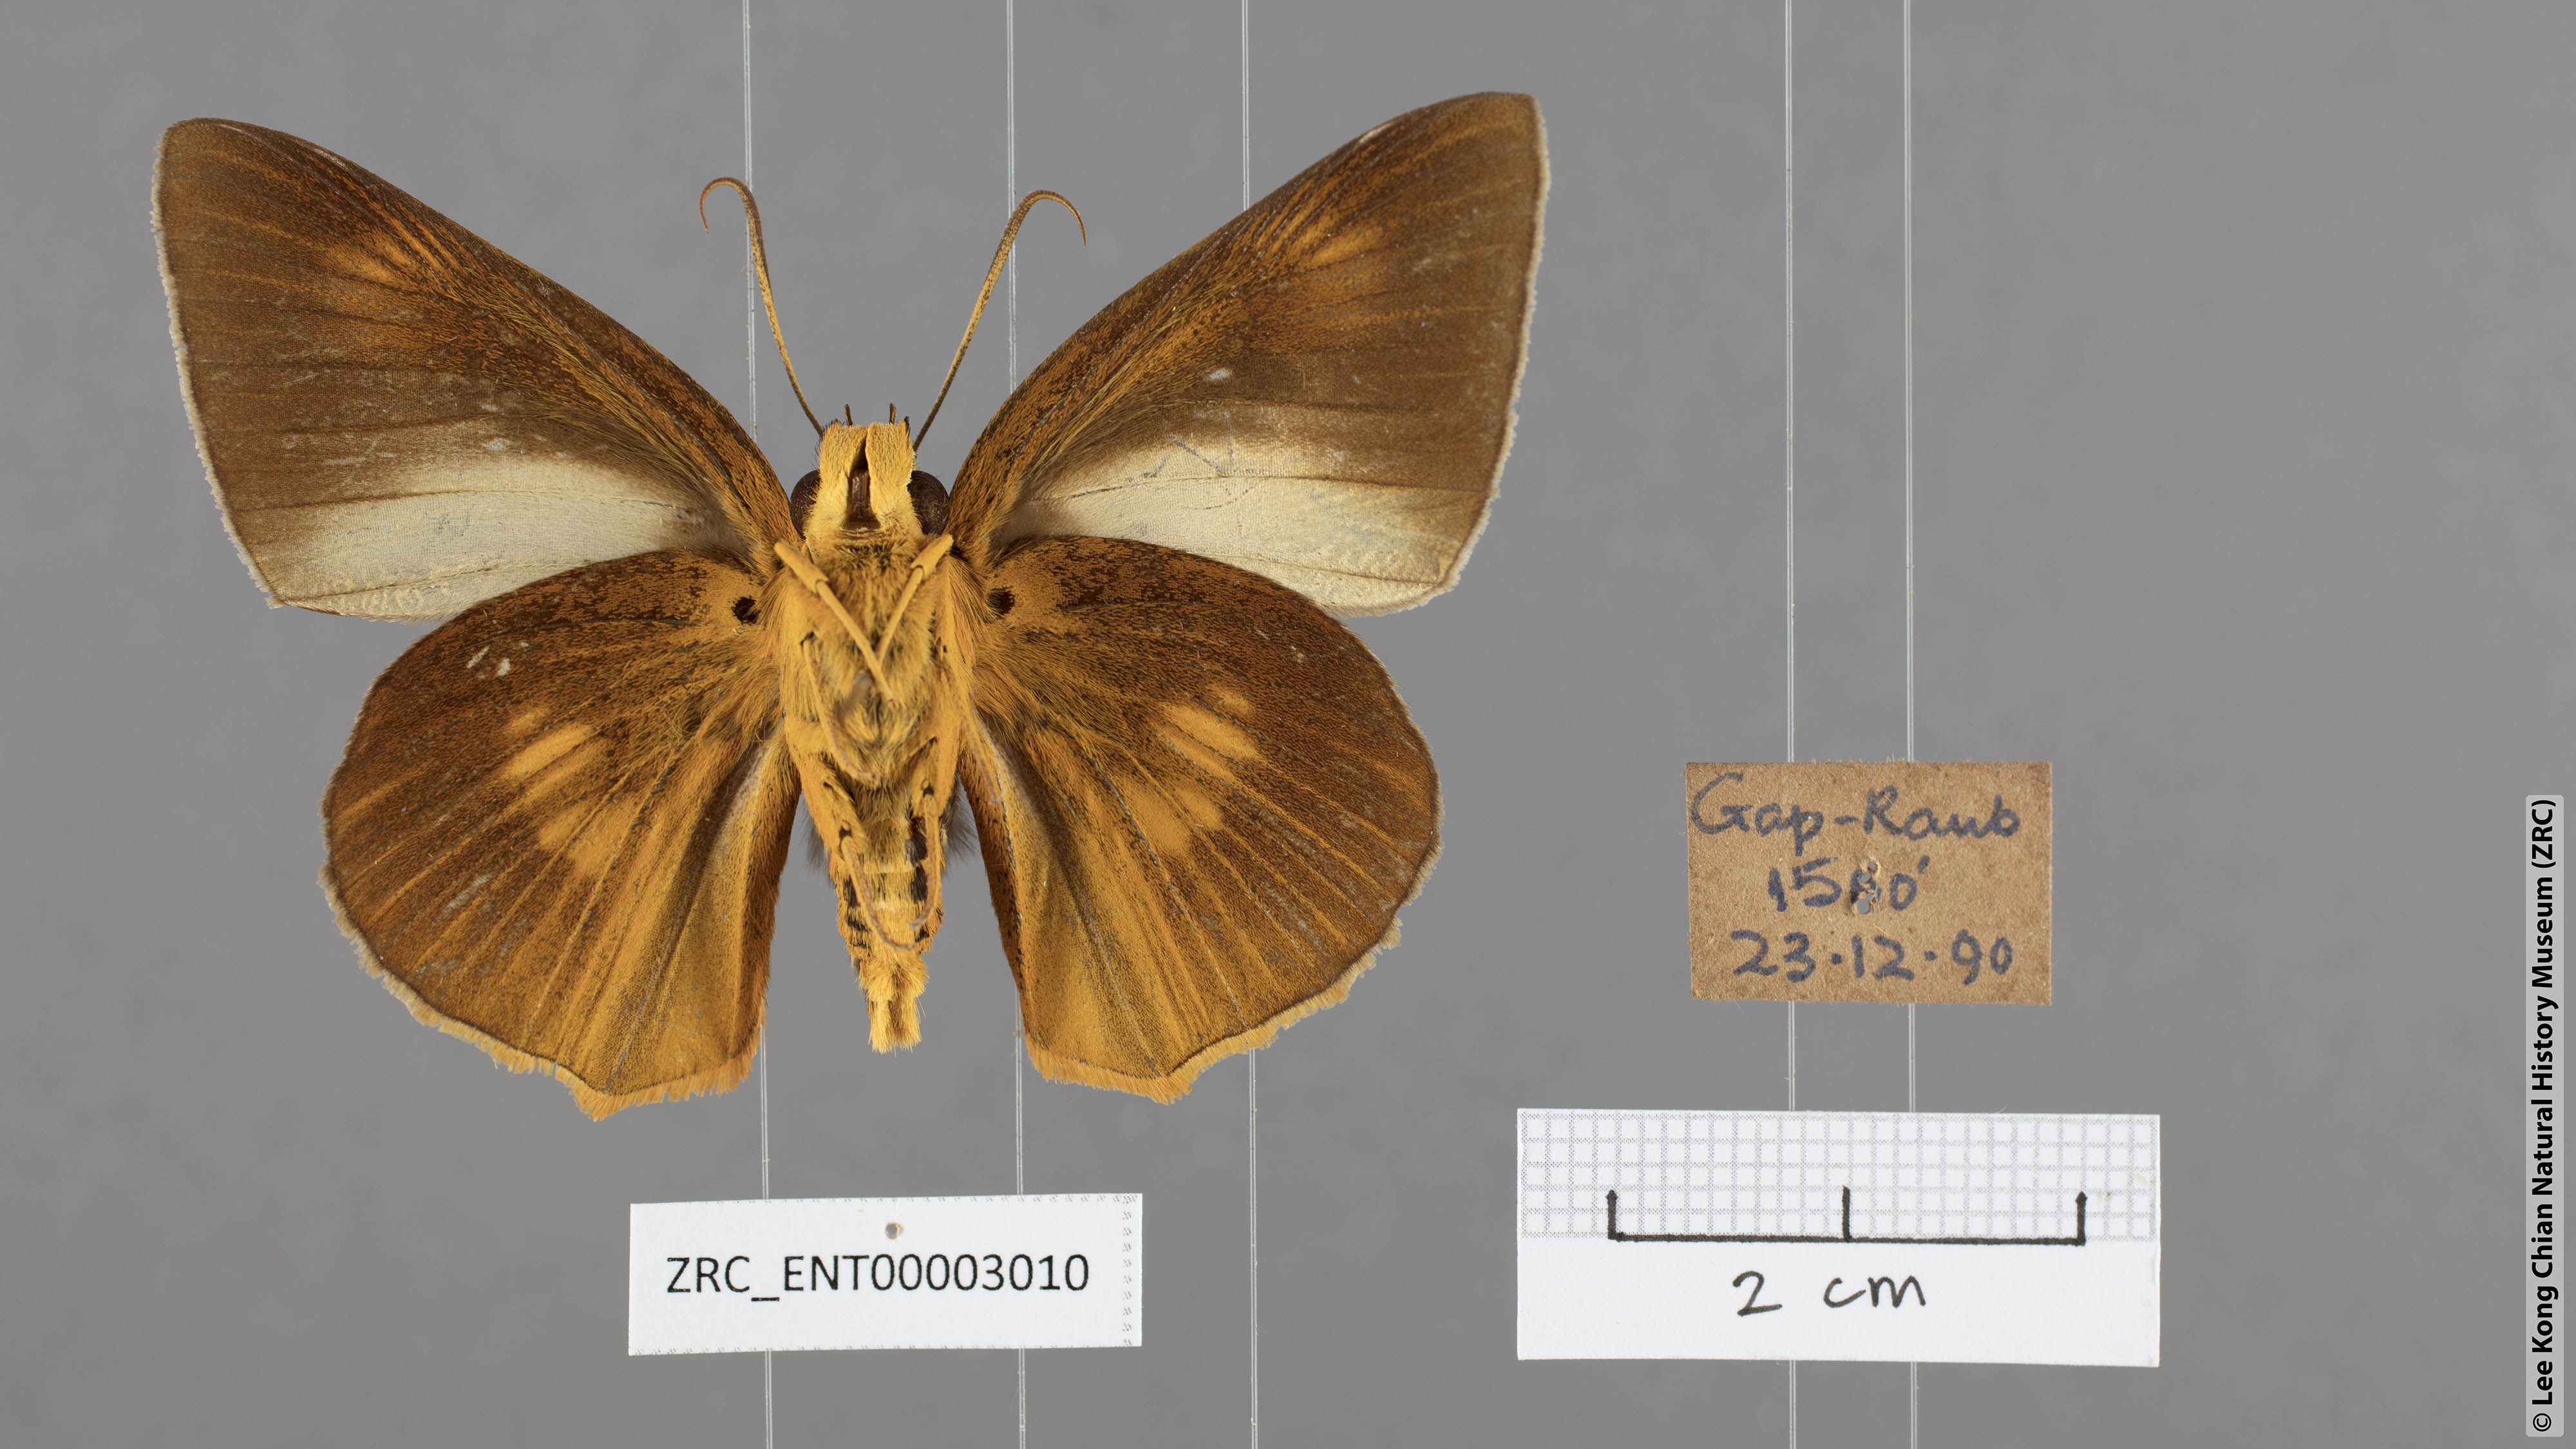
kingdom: Animalia
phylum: Arthropoda
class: Insecta
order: Lepidoptera
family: Hesperiidae
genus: Bibasis
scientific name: Bibasis etelka
